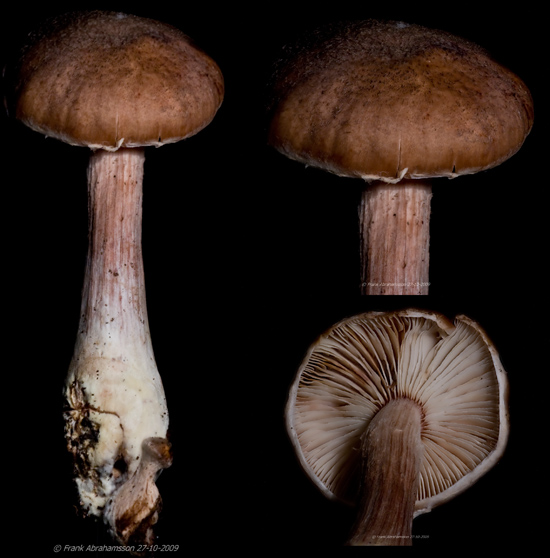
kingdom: Fungi
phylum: Basidiomycota
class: Agaricomycetes
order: Agaricales
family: Physalacriaceae
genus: Armillaria
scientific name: Armillaria lutea
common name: køllestokket honningsvamp
